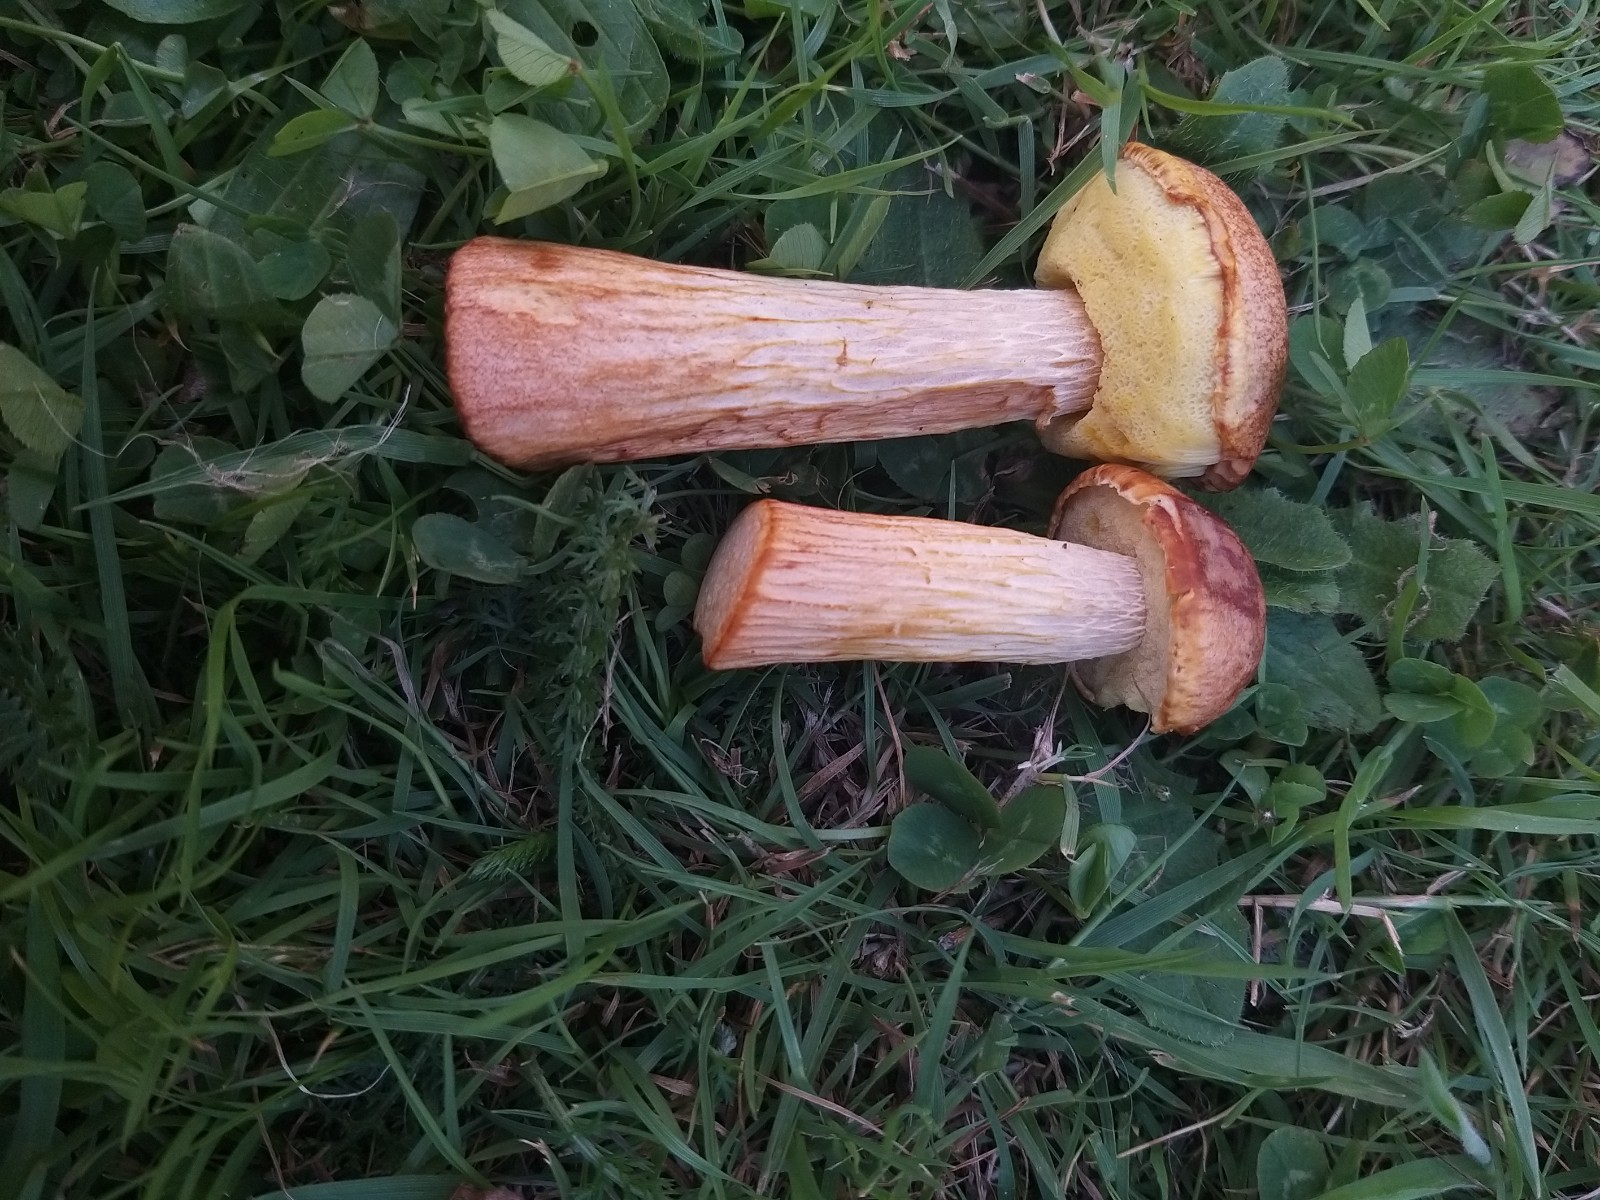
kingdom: Fungi
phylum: Basidiomycota
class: Agaricomycetes
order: Boletales
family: Boletaceae
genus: Aureoboletus
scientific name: Aureoboletus projectellus
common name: ribbestokket rørhat
